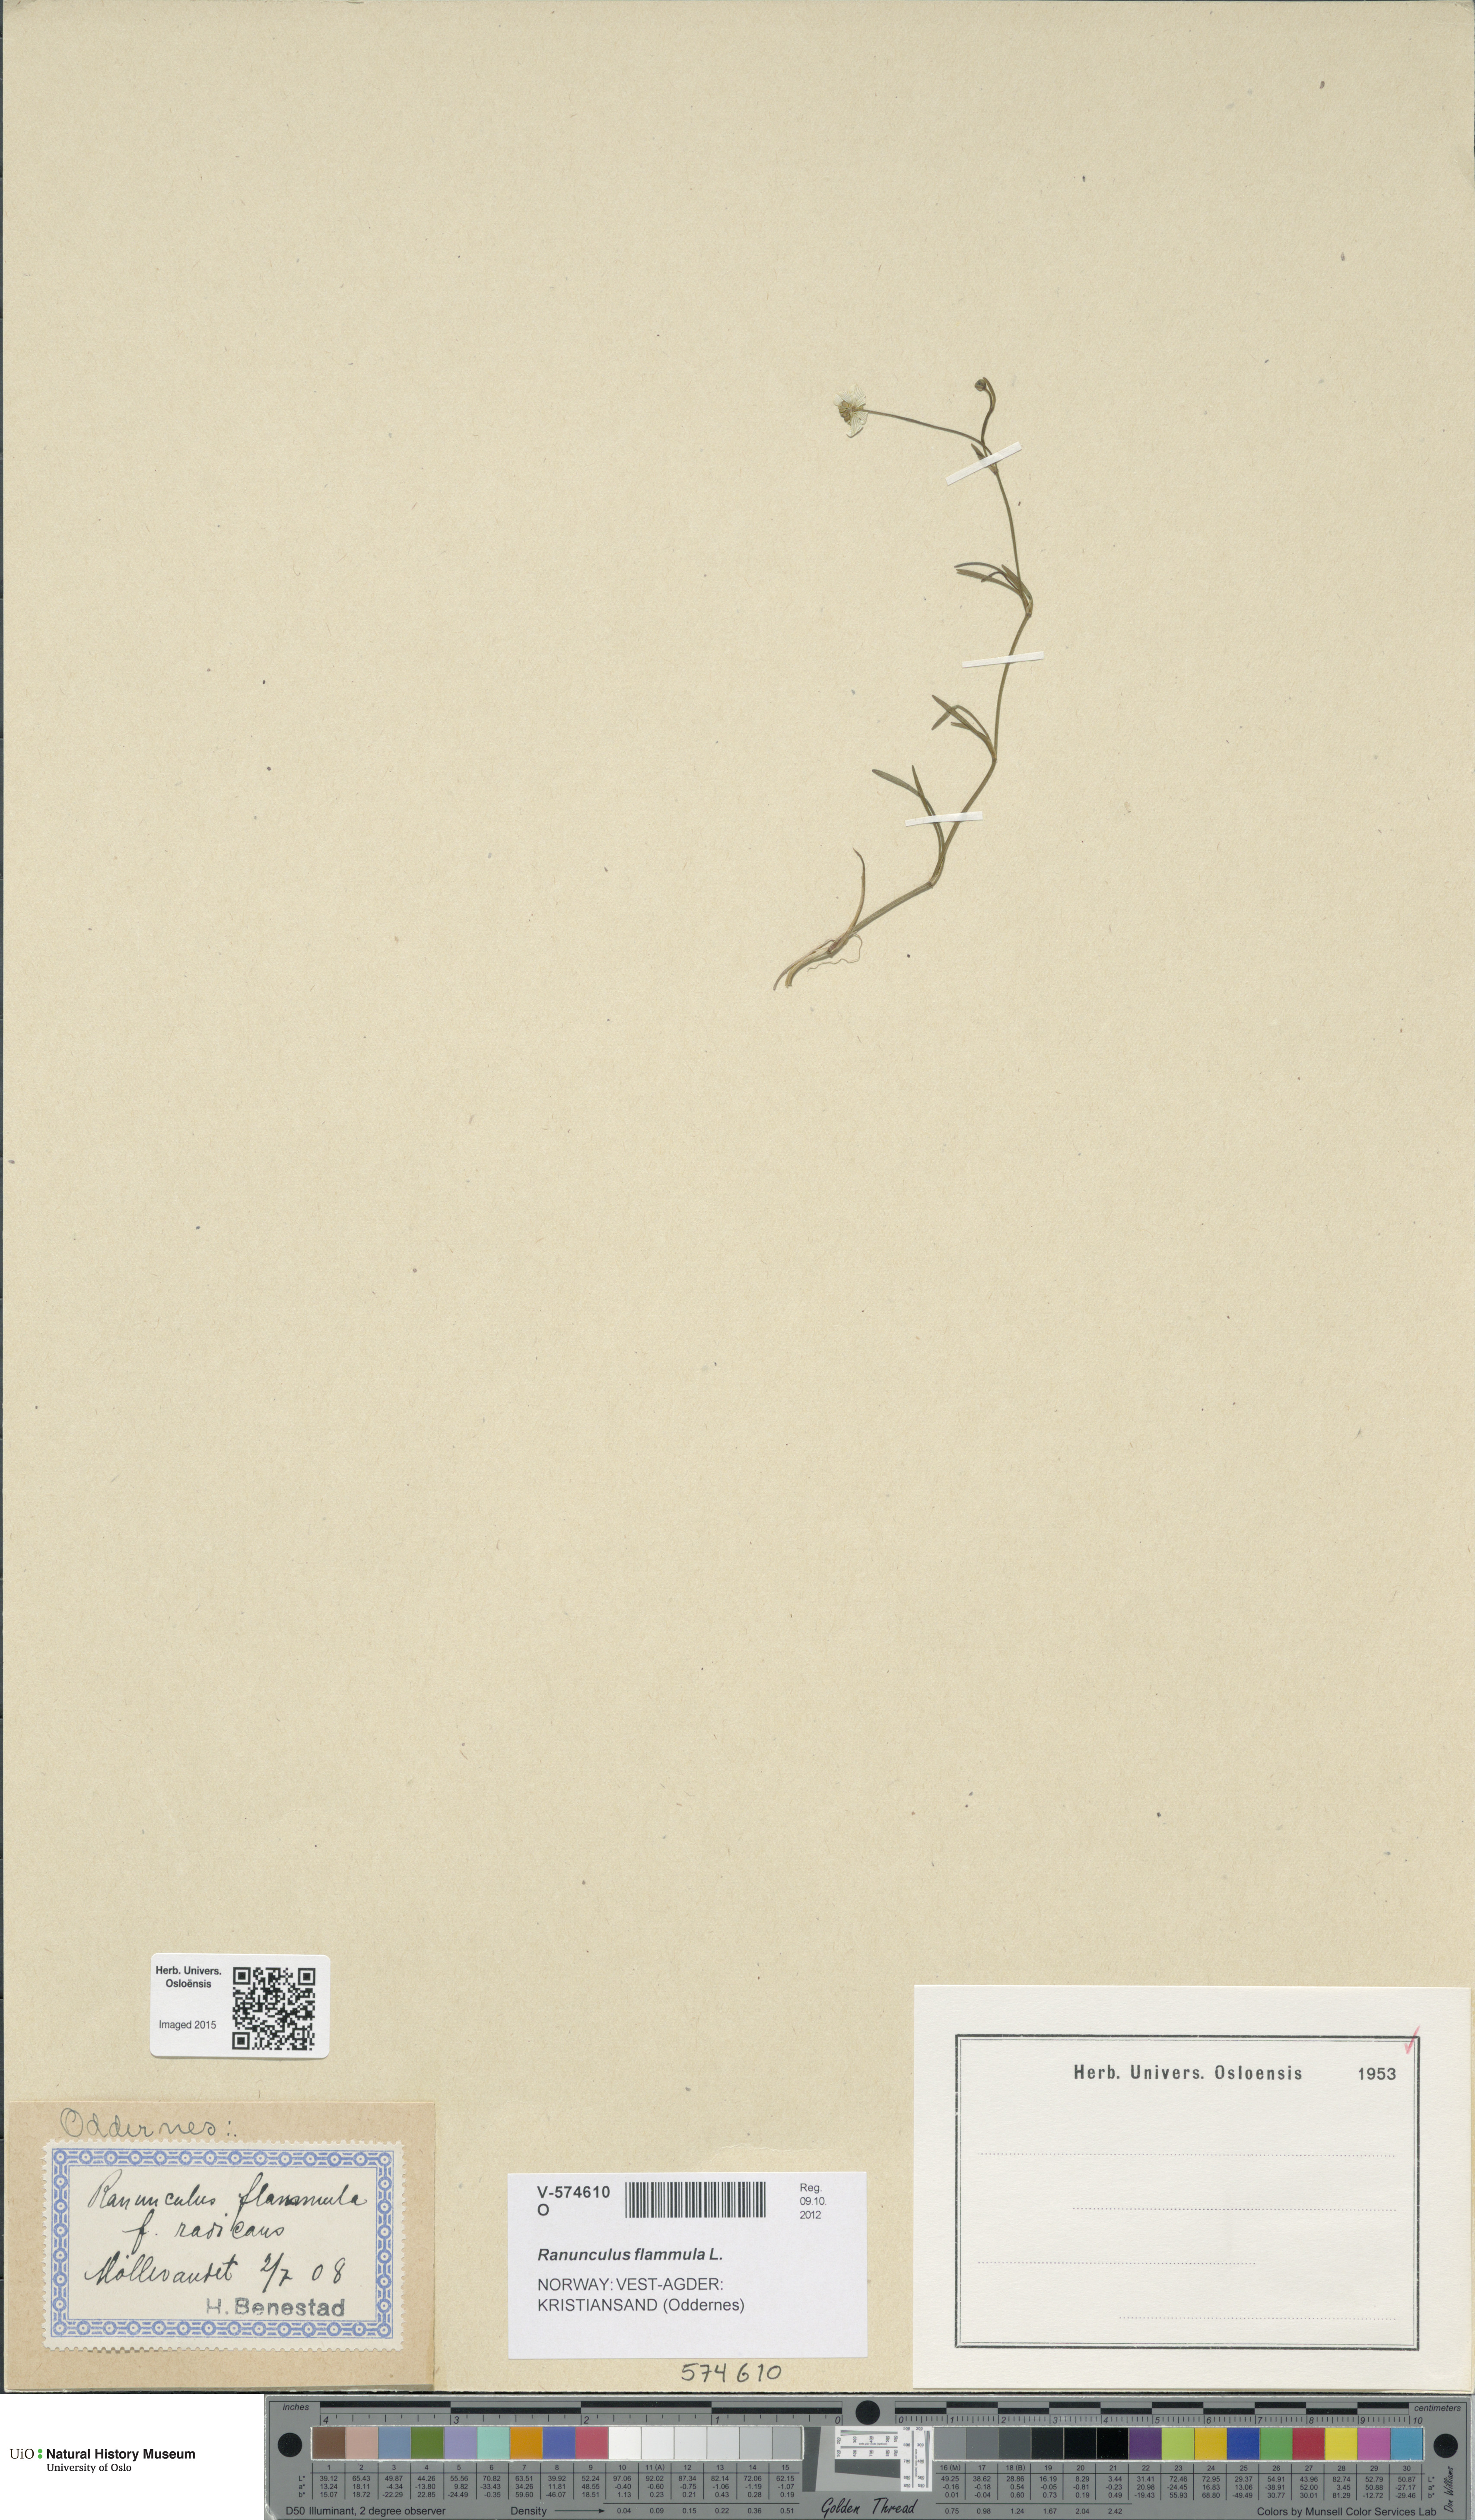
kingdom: Plantae
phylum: Tracheophyta
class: Magnoliopsida
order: Ranunculales
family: Ranunculaceae
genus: Ranunculus
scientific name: Ranunculus flammula
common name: Lesser spearwort
